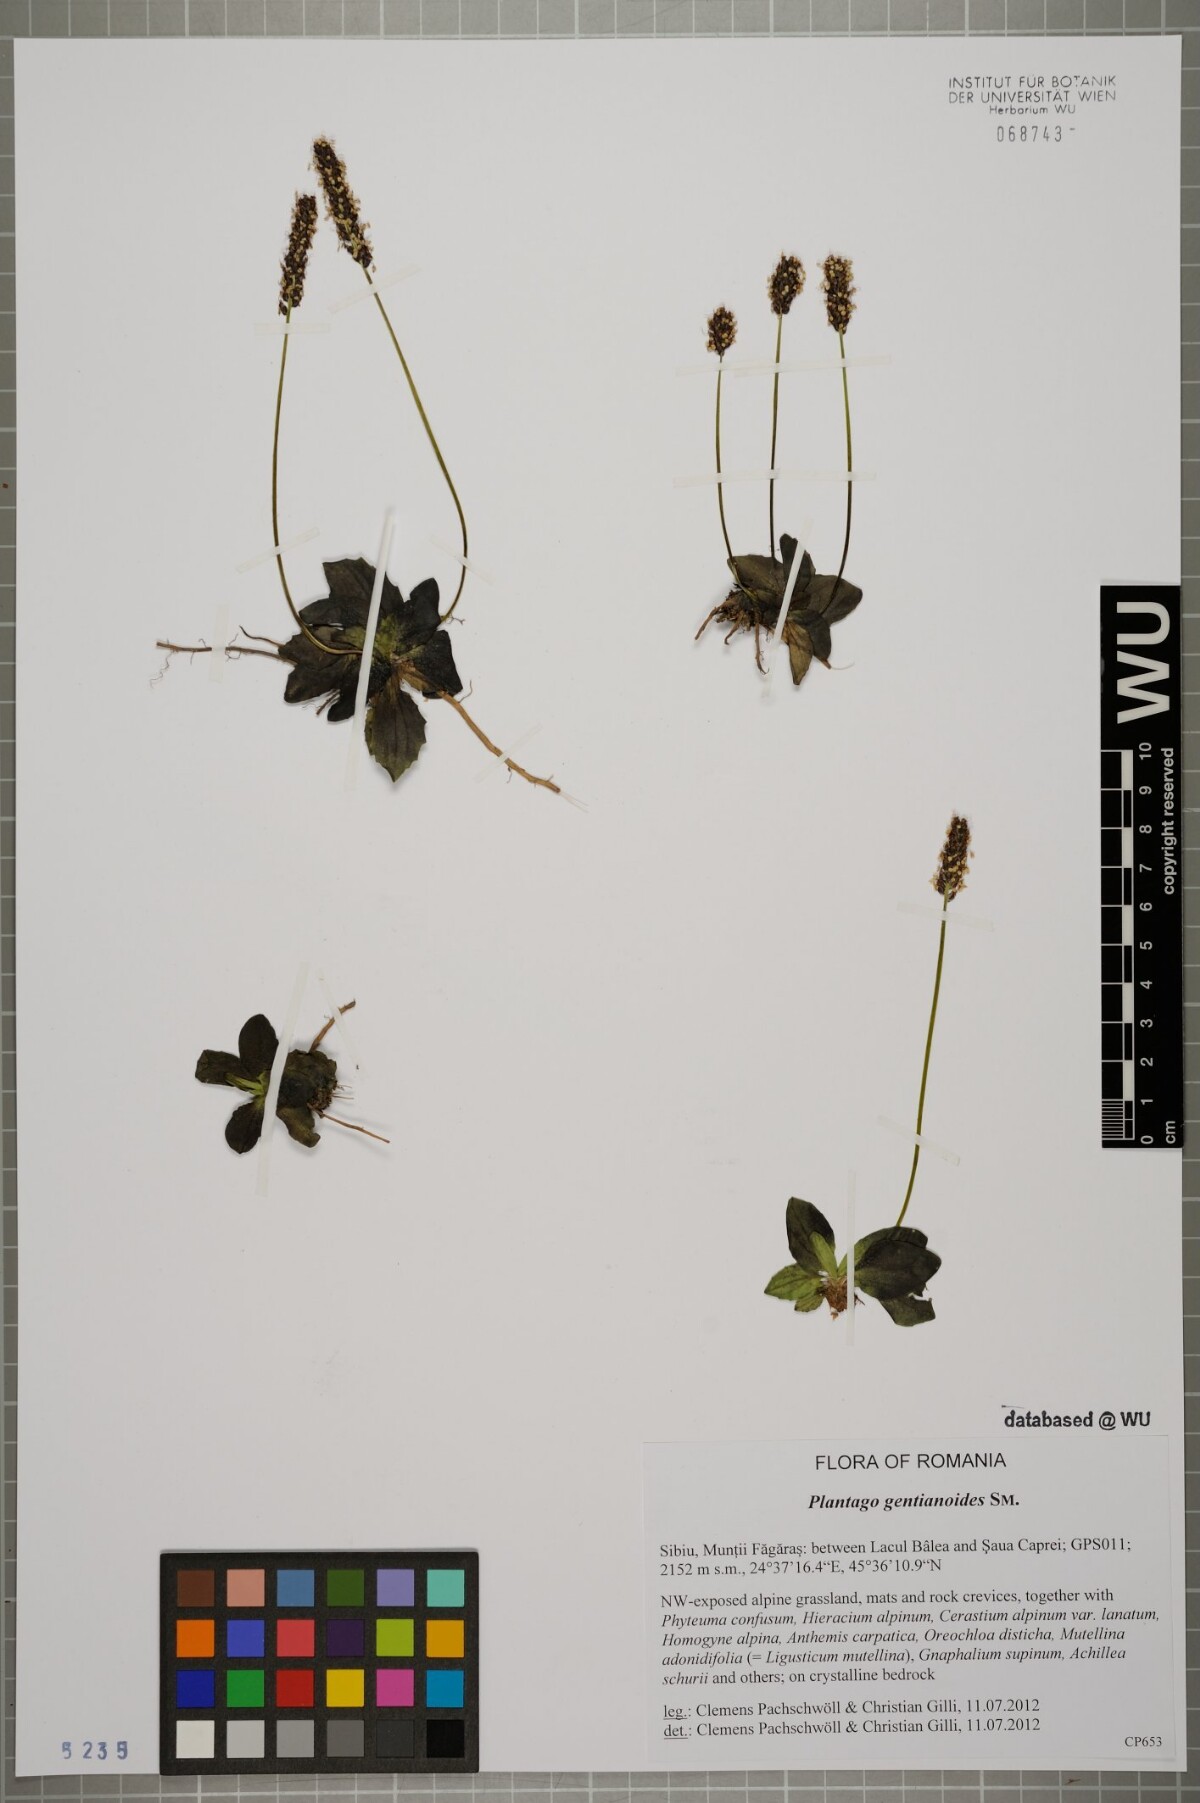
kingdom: Plantae
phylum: Tracheophyta
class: Magnoliopsida
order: Lamiales
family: Plantaginaceae
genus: Plantago
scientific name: Plantago gentianoides
